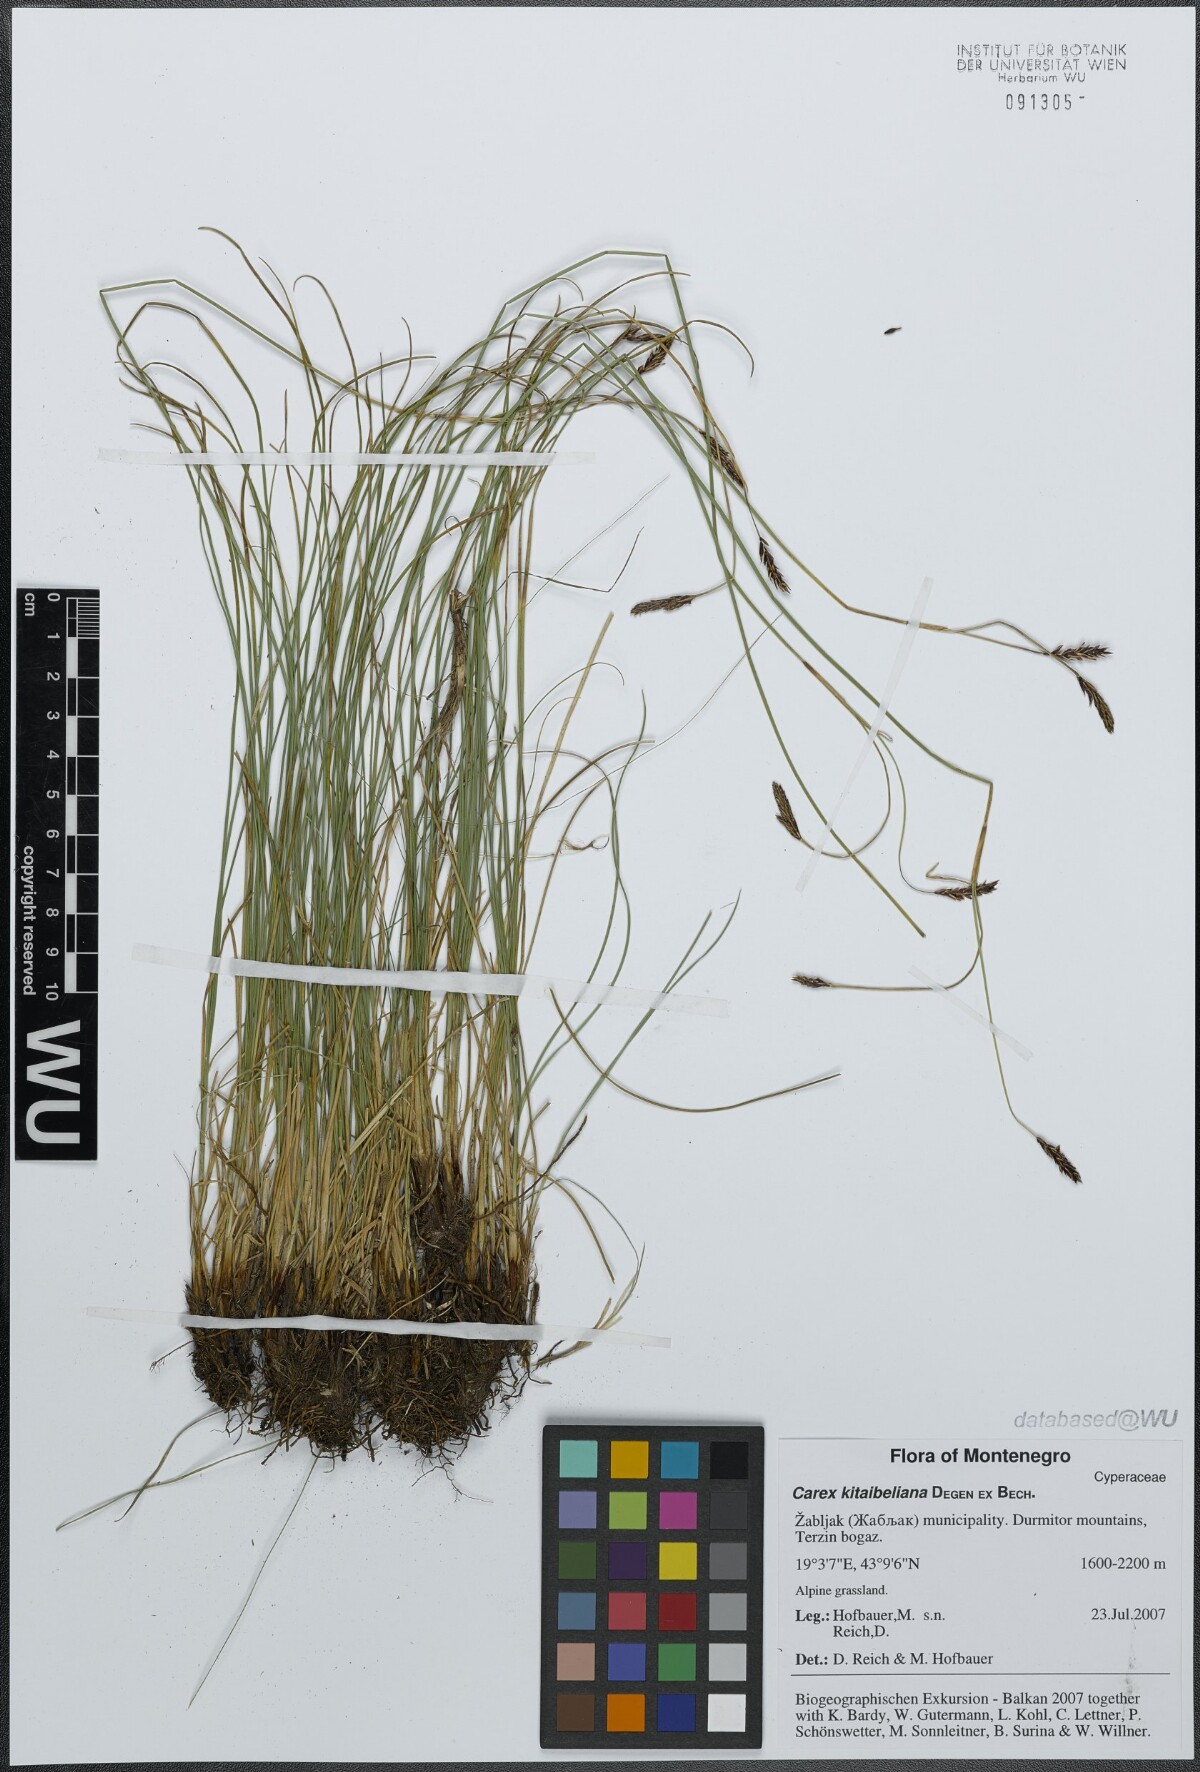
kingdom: Plantae
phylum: Tracheophyta
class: Liliopsida
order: Poales
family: Cyperaceae
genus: Carex
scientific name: Carex kitaibeliana
